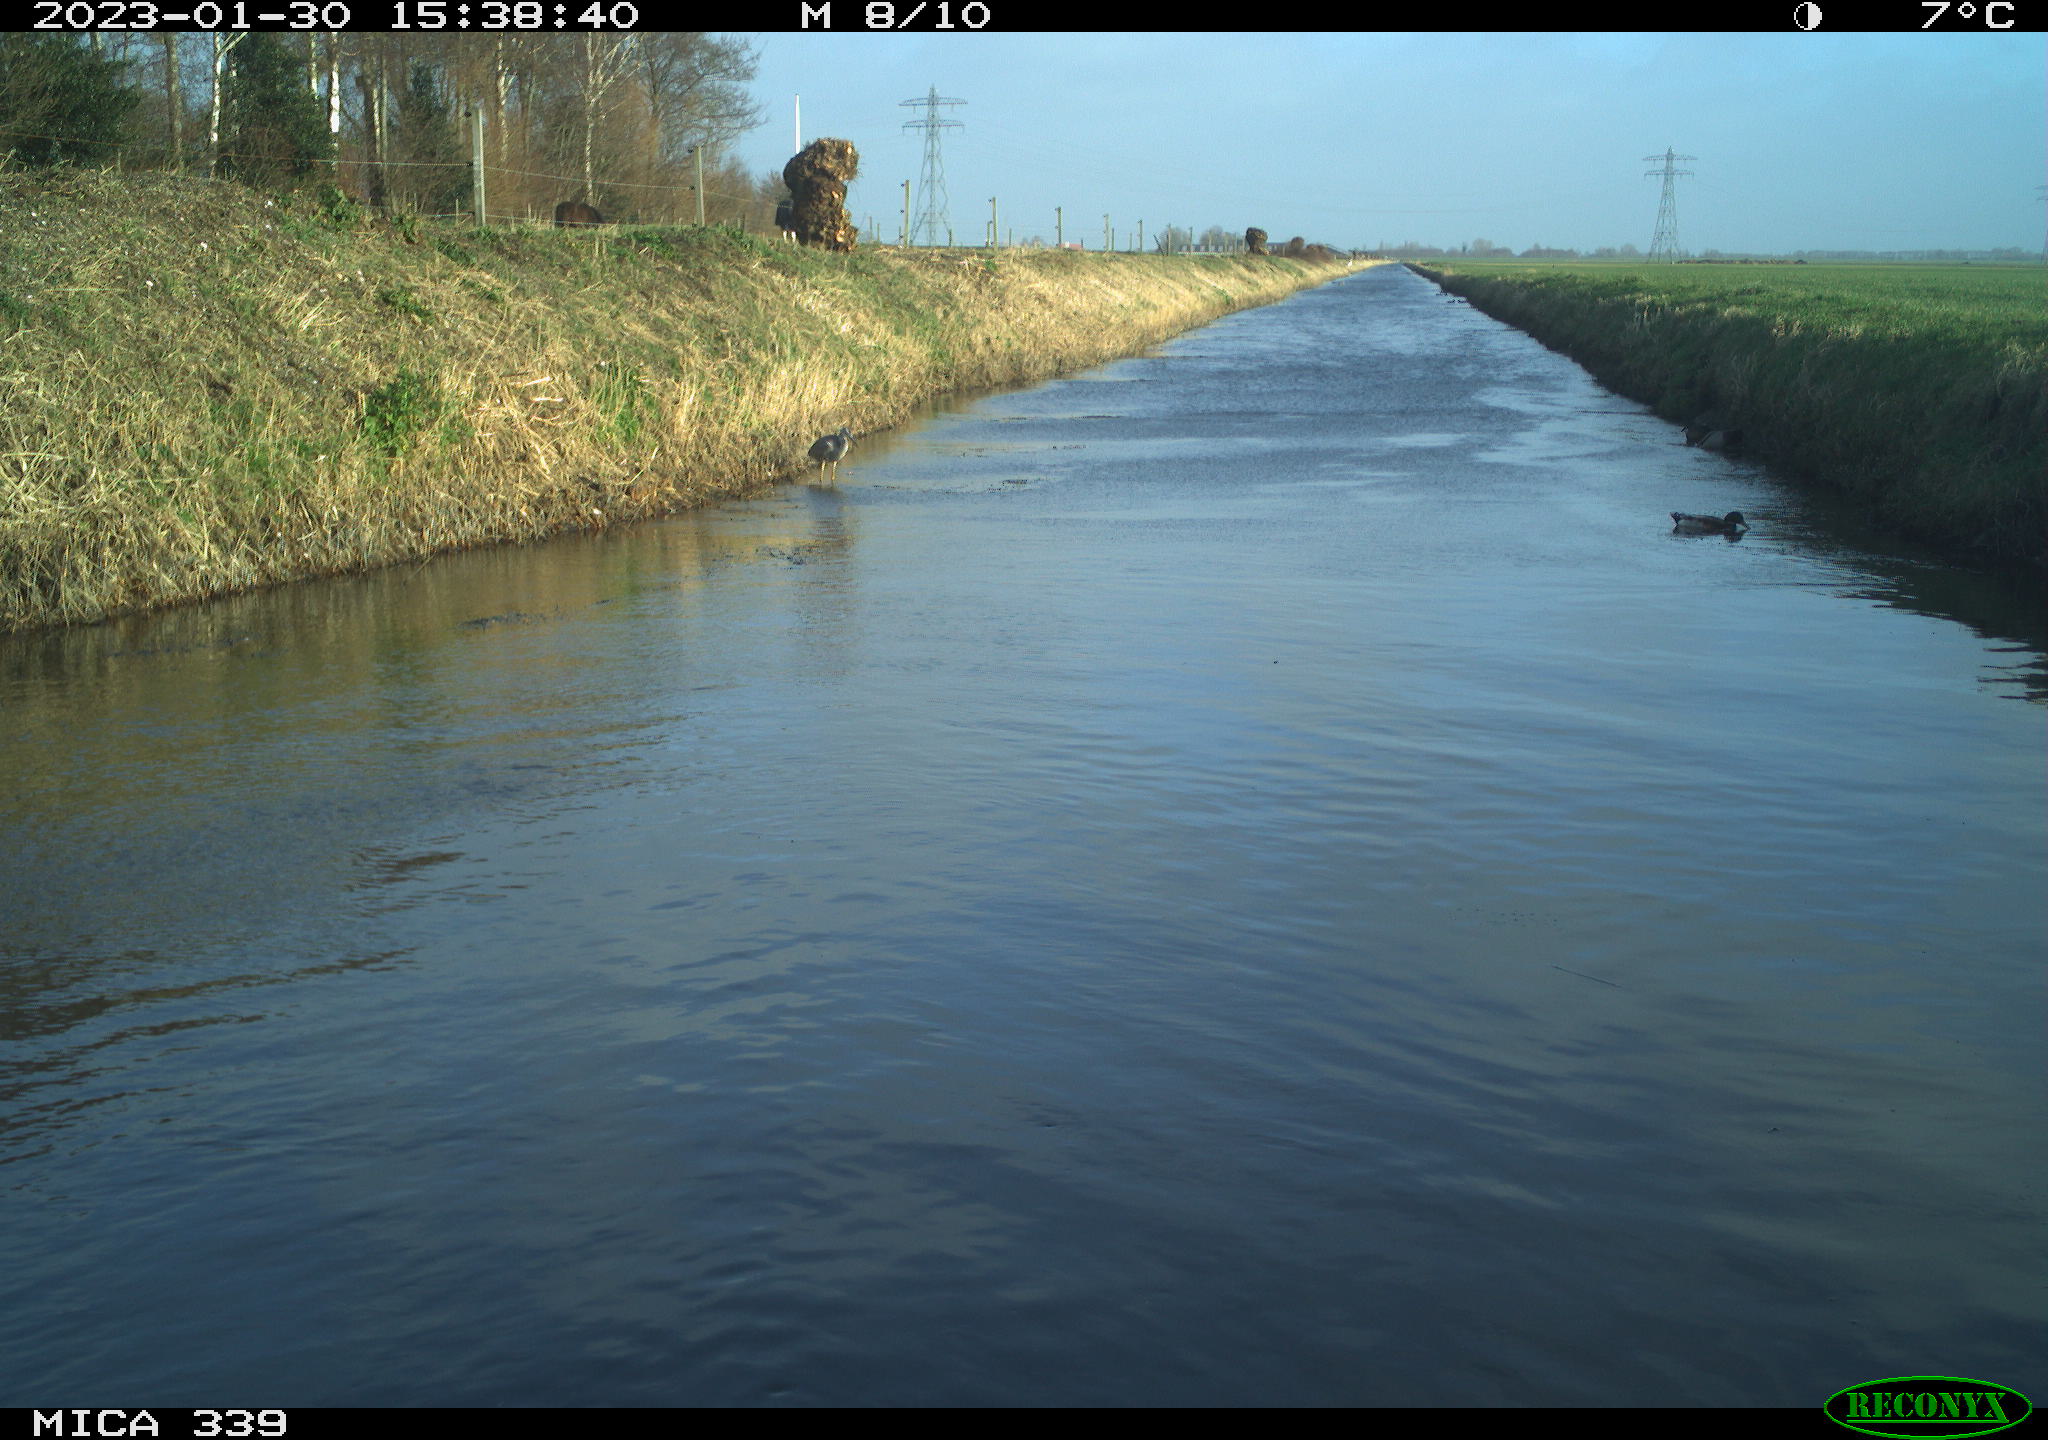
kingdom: Animalia
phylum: Chordata
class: Aves
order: Anseriformes
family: Anatidae
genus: Anas
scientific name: Anas
